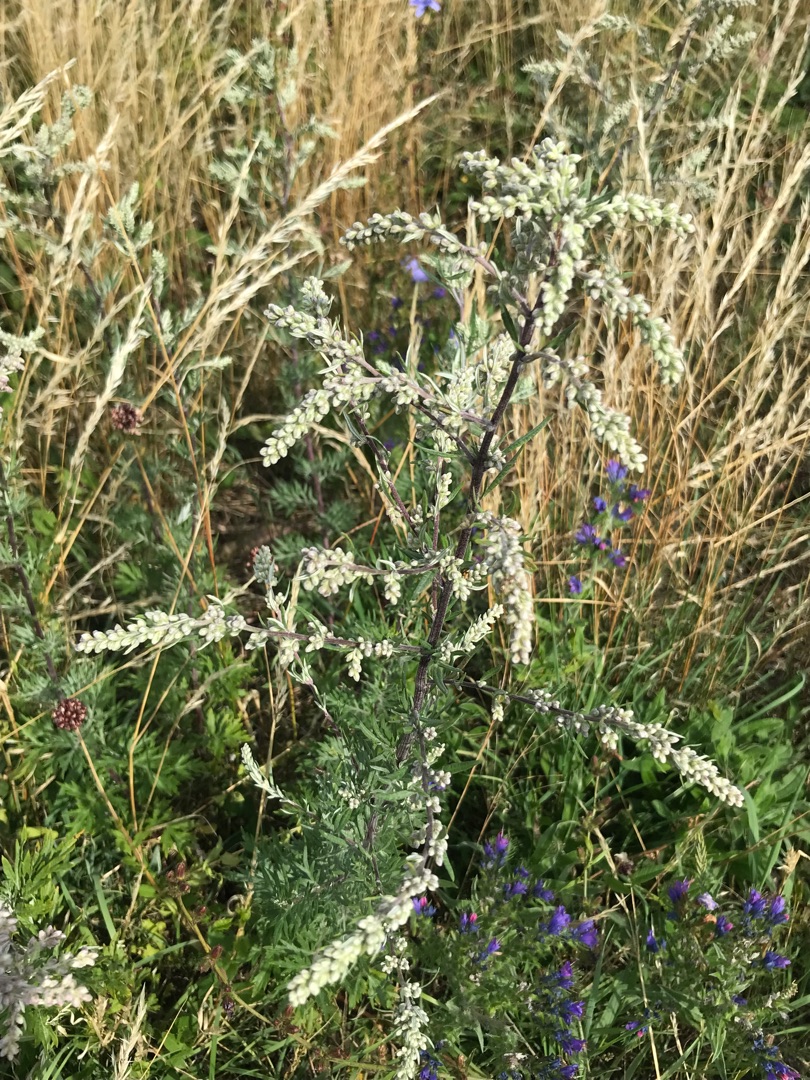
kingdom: Plantae
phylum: Tracheophyta
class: Magnoliopsida
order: Asterales
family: Asteraceae
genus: Artemisia
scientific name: Artemisia vulgaris
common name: Grå-bynke
